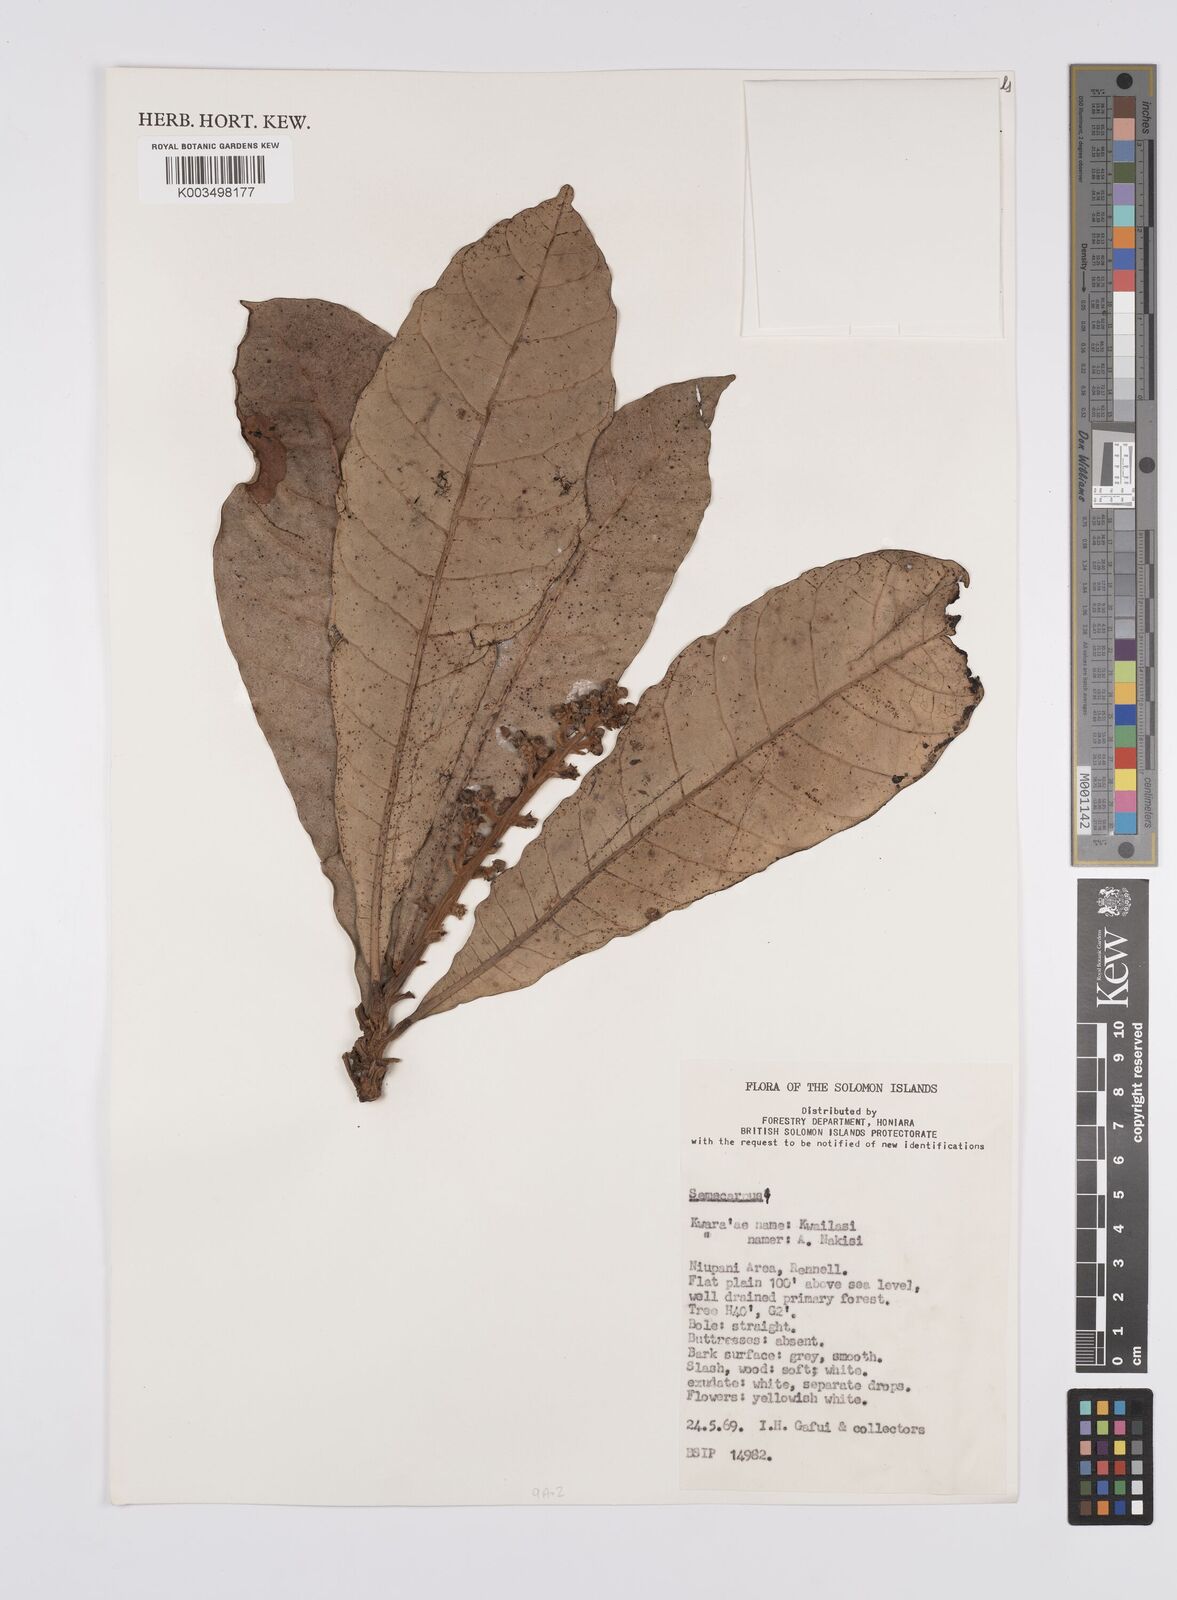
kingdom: Plantae
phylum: Tracheophyta
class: Magnoliopsida
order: Sapindales
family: Anacardiaceae
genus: Semecarpus
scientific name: Semecarpus
